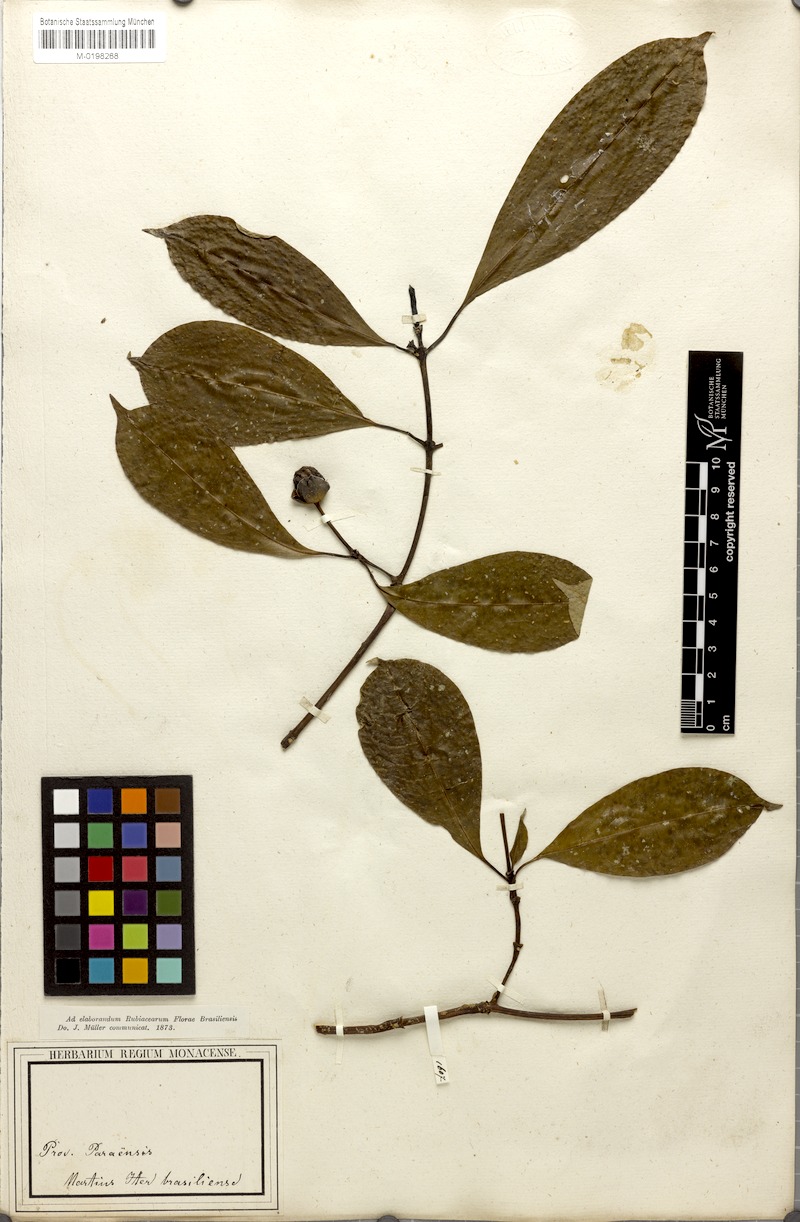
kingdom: Plantae
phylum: Tracheophyta
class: Magnoliopsida
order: Gentianales
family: Rubiaceae
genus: Palicourea
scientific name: Palicourea perinsignis
